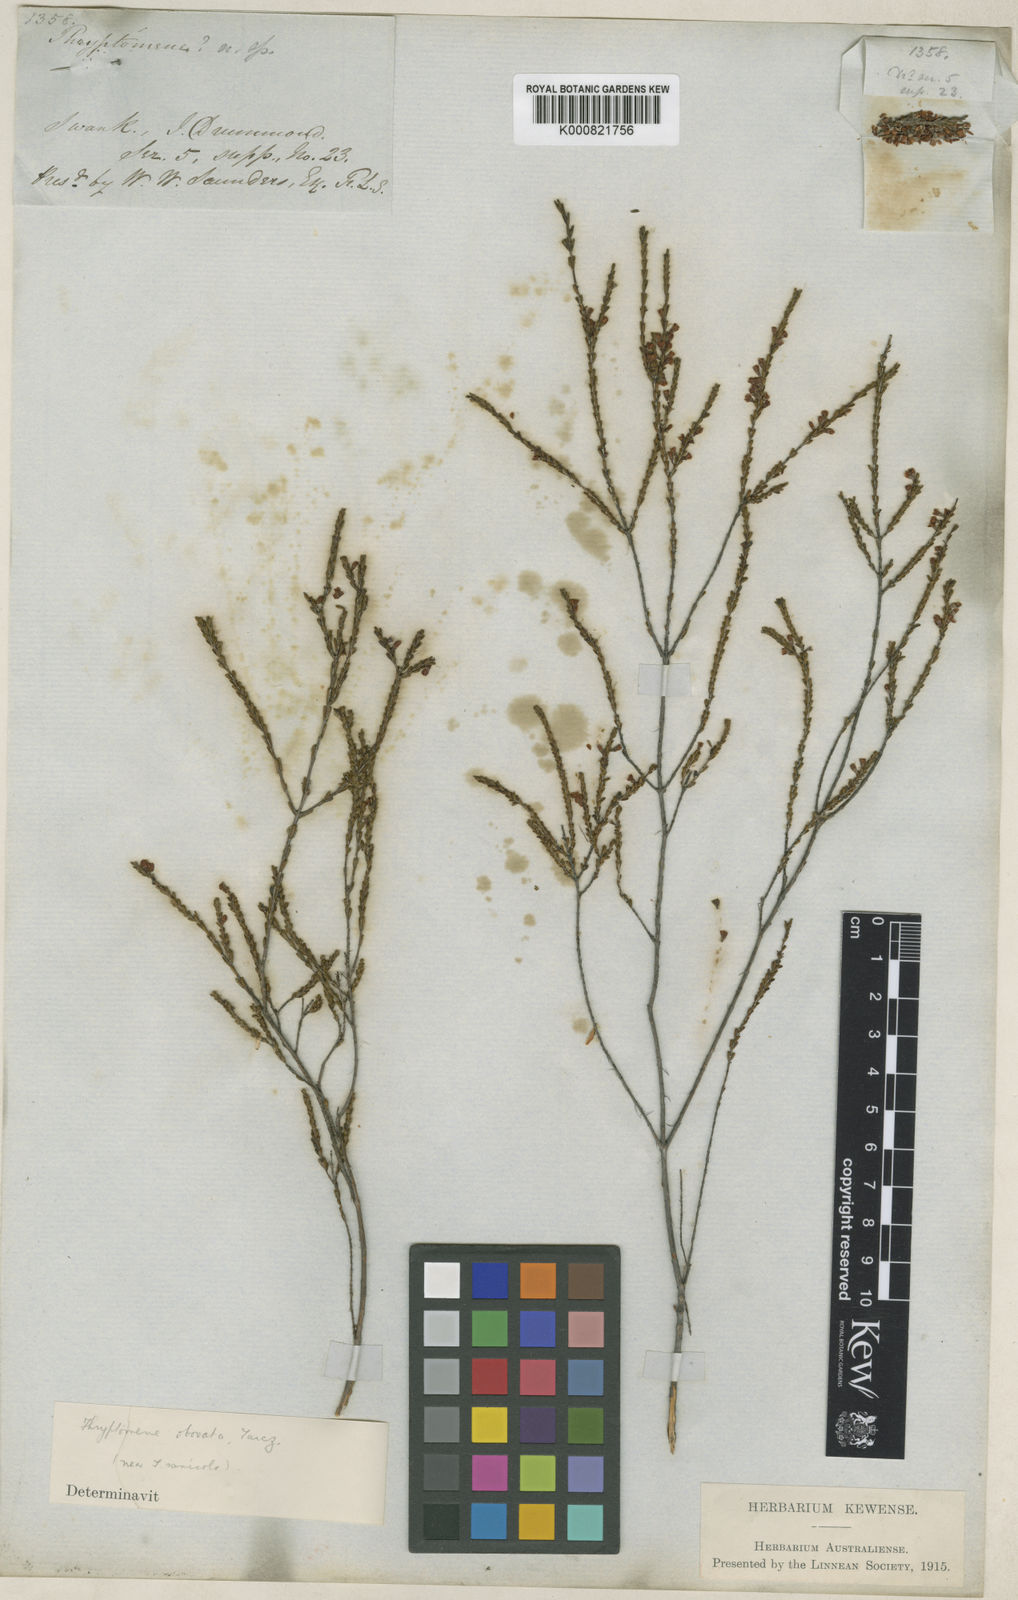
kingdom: Plantae
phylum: Tracheophyta
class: Magnoliopsida
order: Myrtales
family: Myrtaceae
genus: Micromyrtus
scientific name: Micromyrtus obovata
